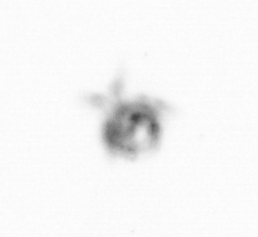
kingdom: Animalia
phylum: Arthropoda
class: Copepoda
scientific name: Copepoda
